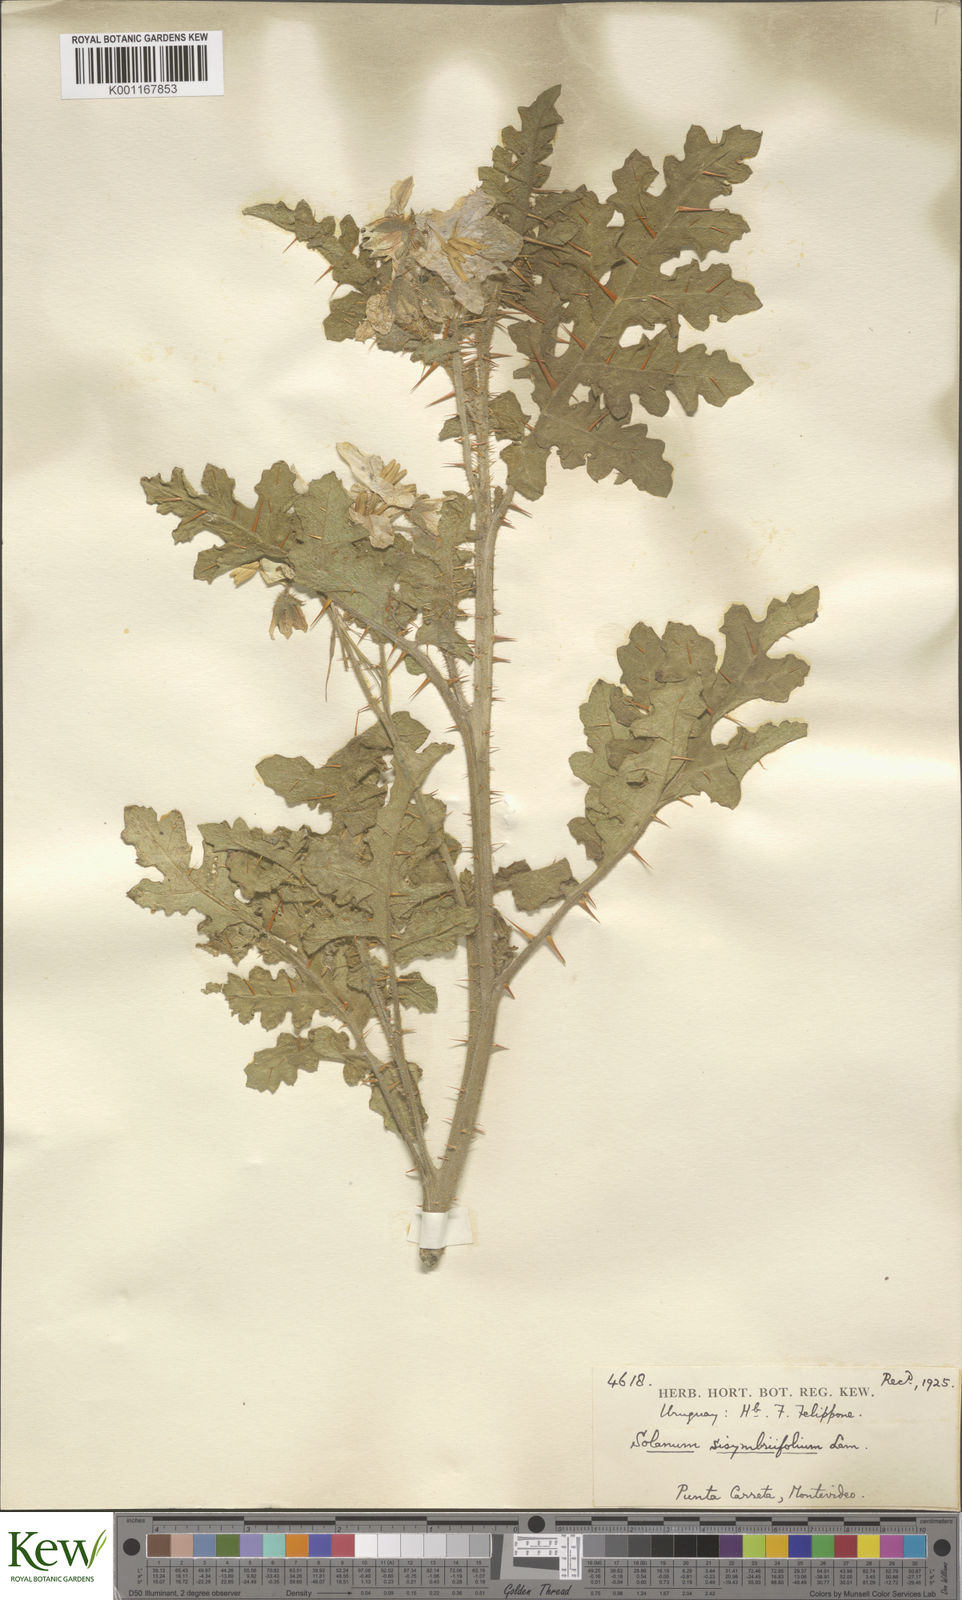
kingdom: Plantae
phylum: Tracheophyta
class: Magnoliopsida
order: Solanales
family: Solanaceae
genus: Solanum
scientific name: Solanum sisymbriifolium
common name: Red buffalo-bur
